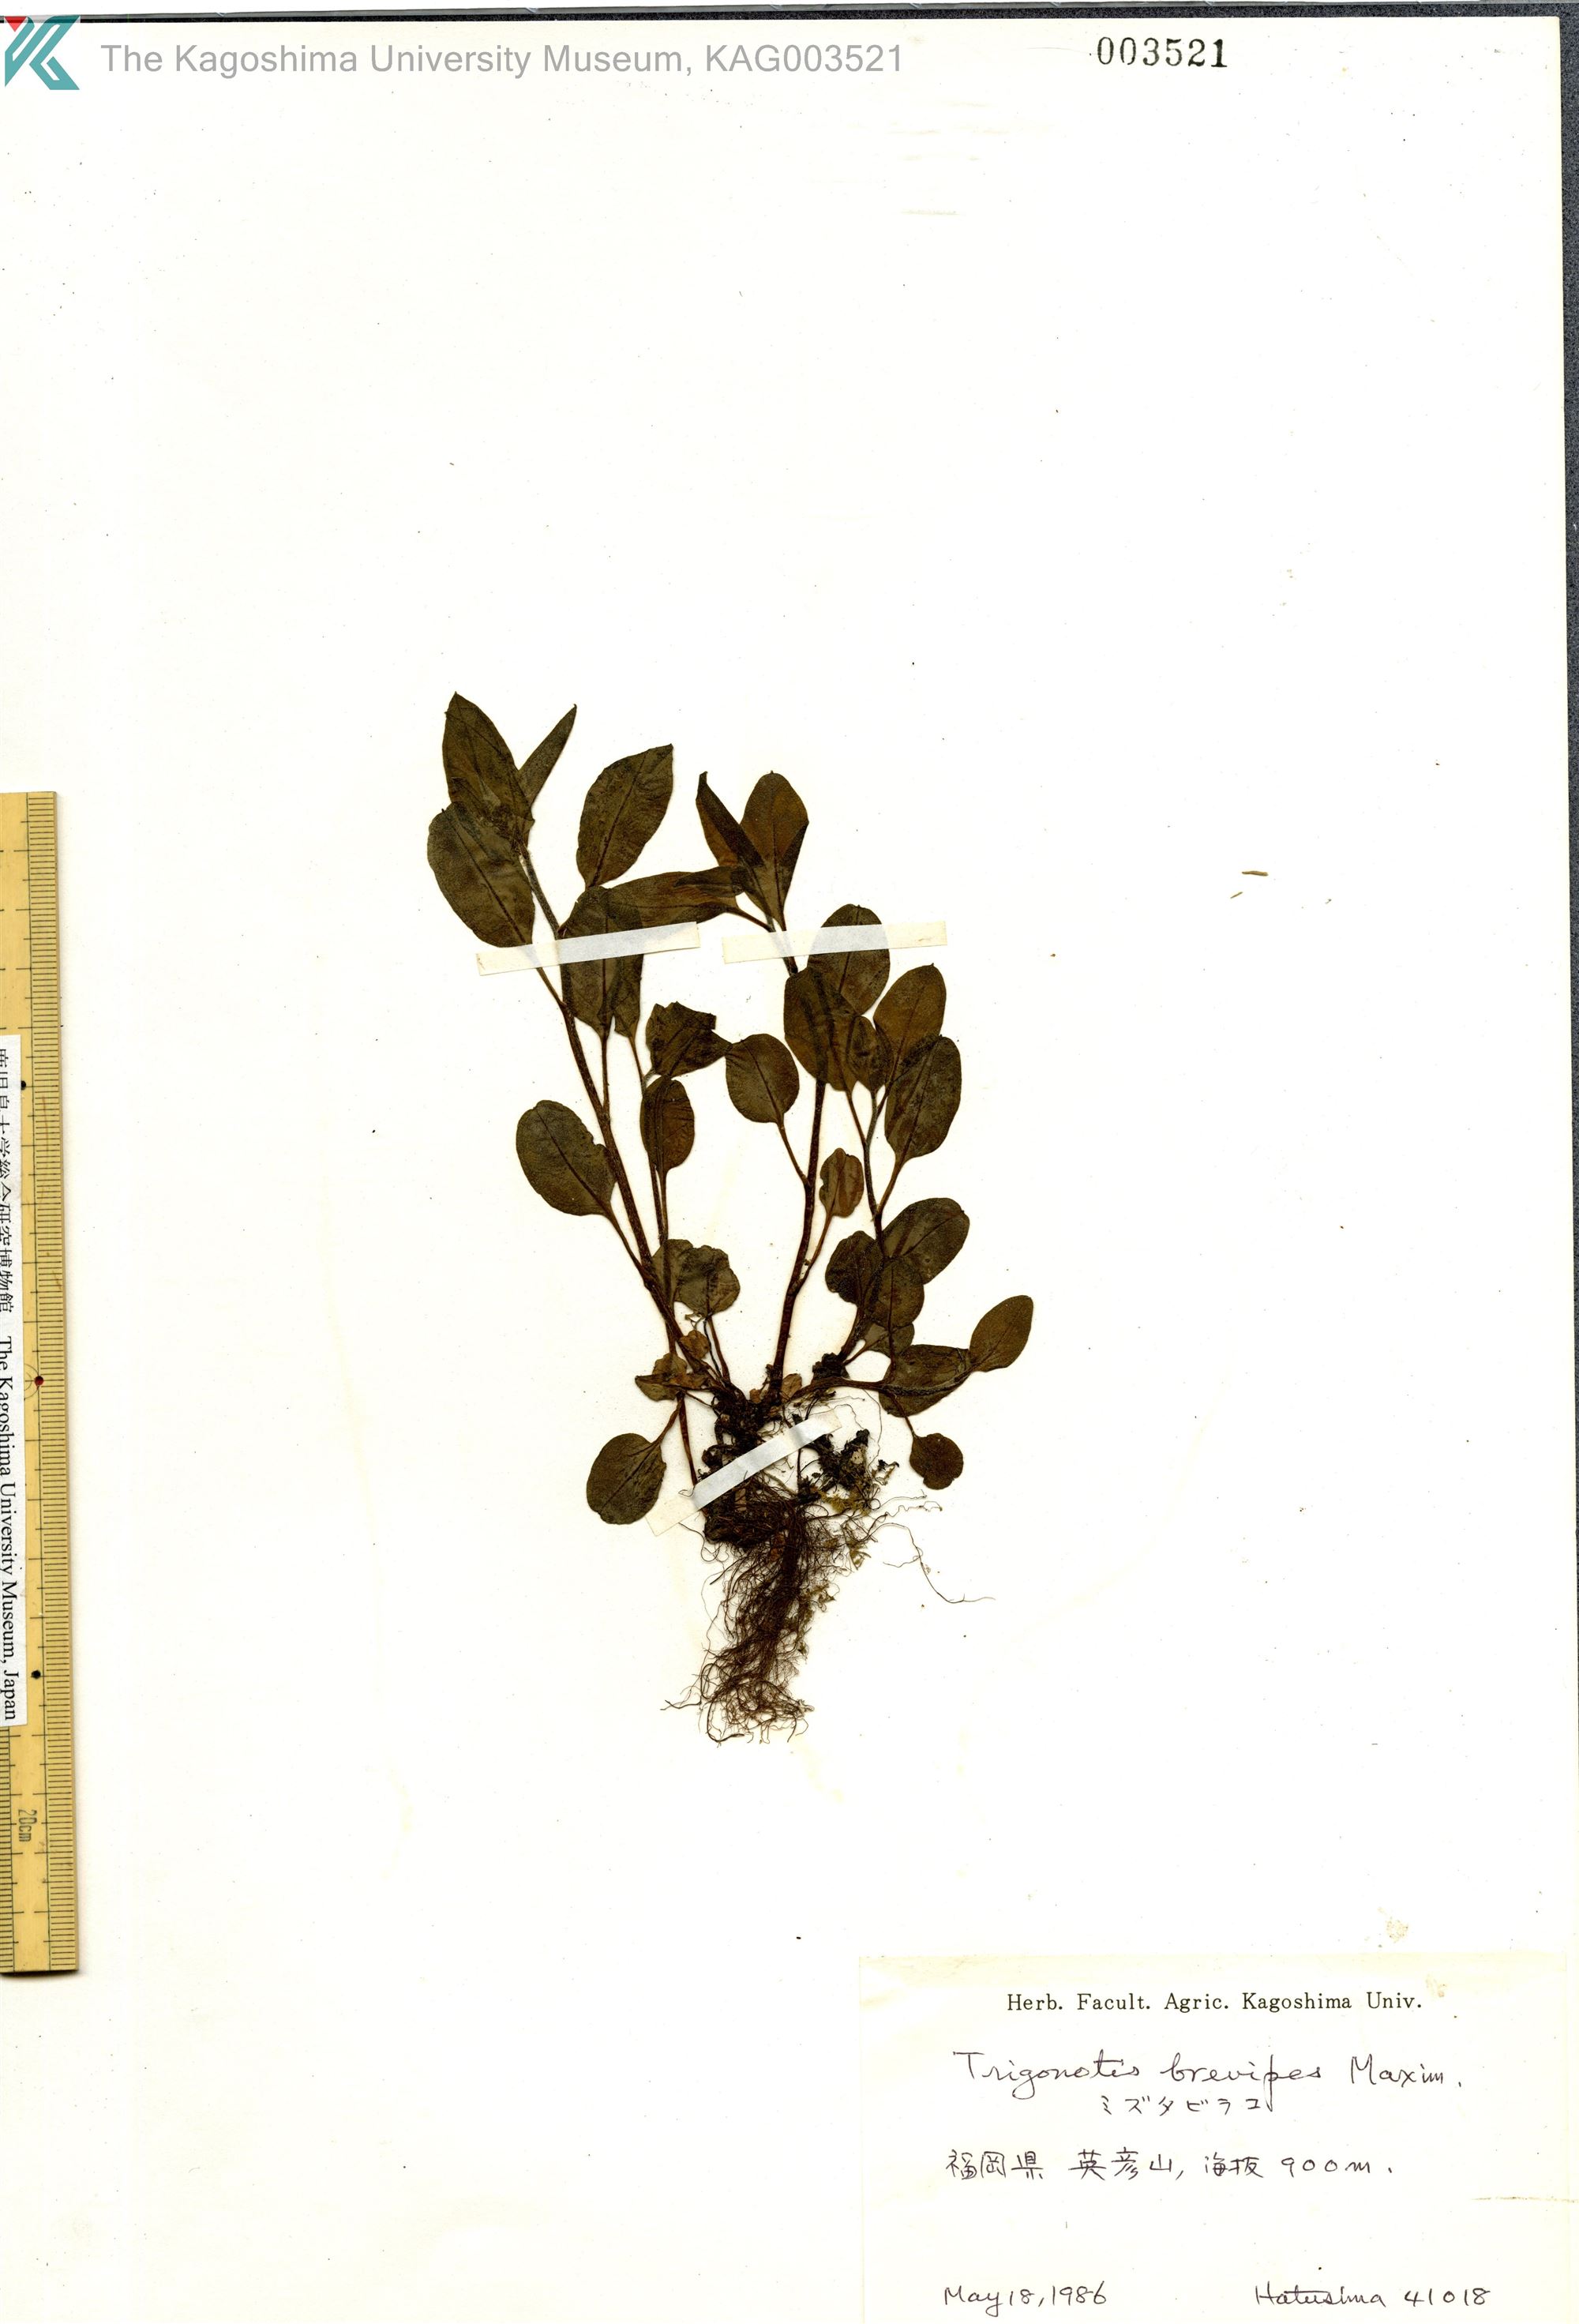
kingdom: Plantae
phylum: Tracheophyta
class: Magnoliopsida
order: Boraginales
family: Boraginaceae
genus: Trigonotis
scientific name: Trigonotis brevipes
